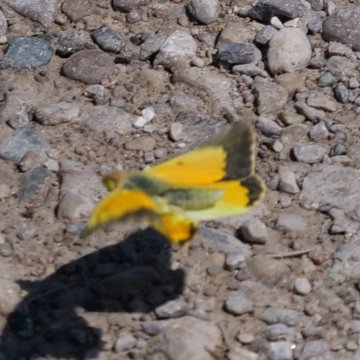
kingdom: Animalia
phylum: Arthropoda
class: Insecta
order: Lepidoptera
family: Pieridae
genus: Colias
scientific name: Colias eurytheme
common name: Orange Sulphur
